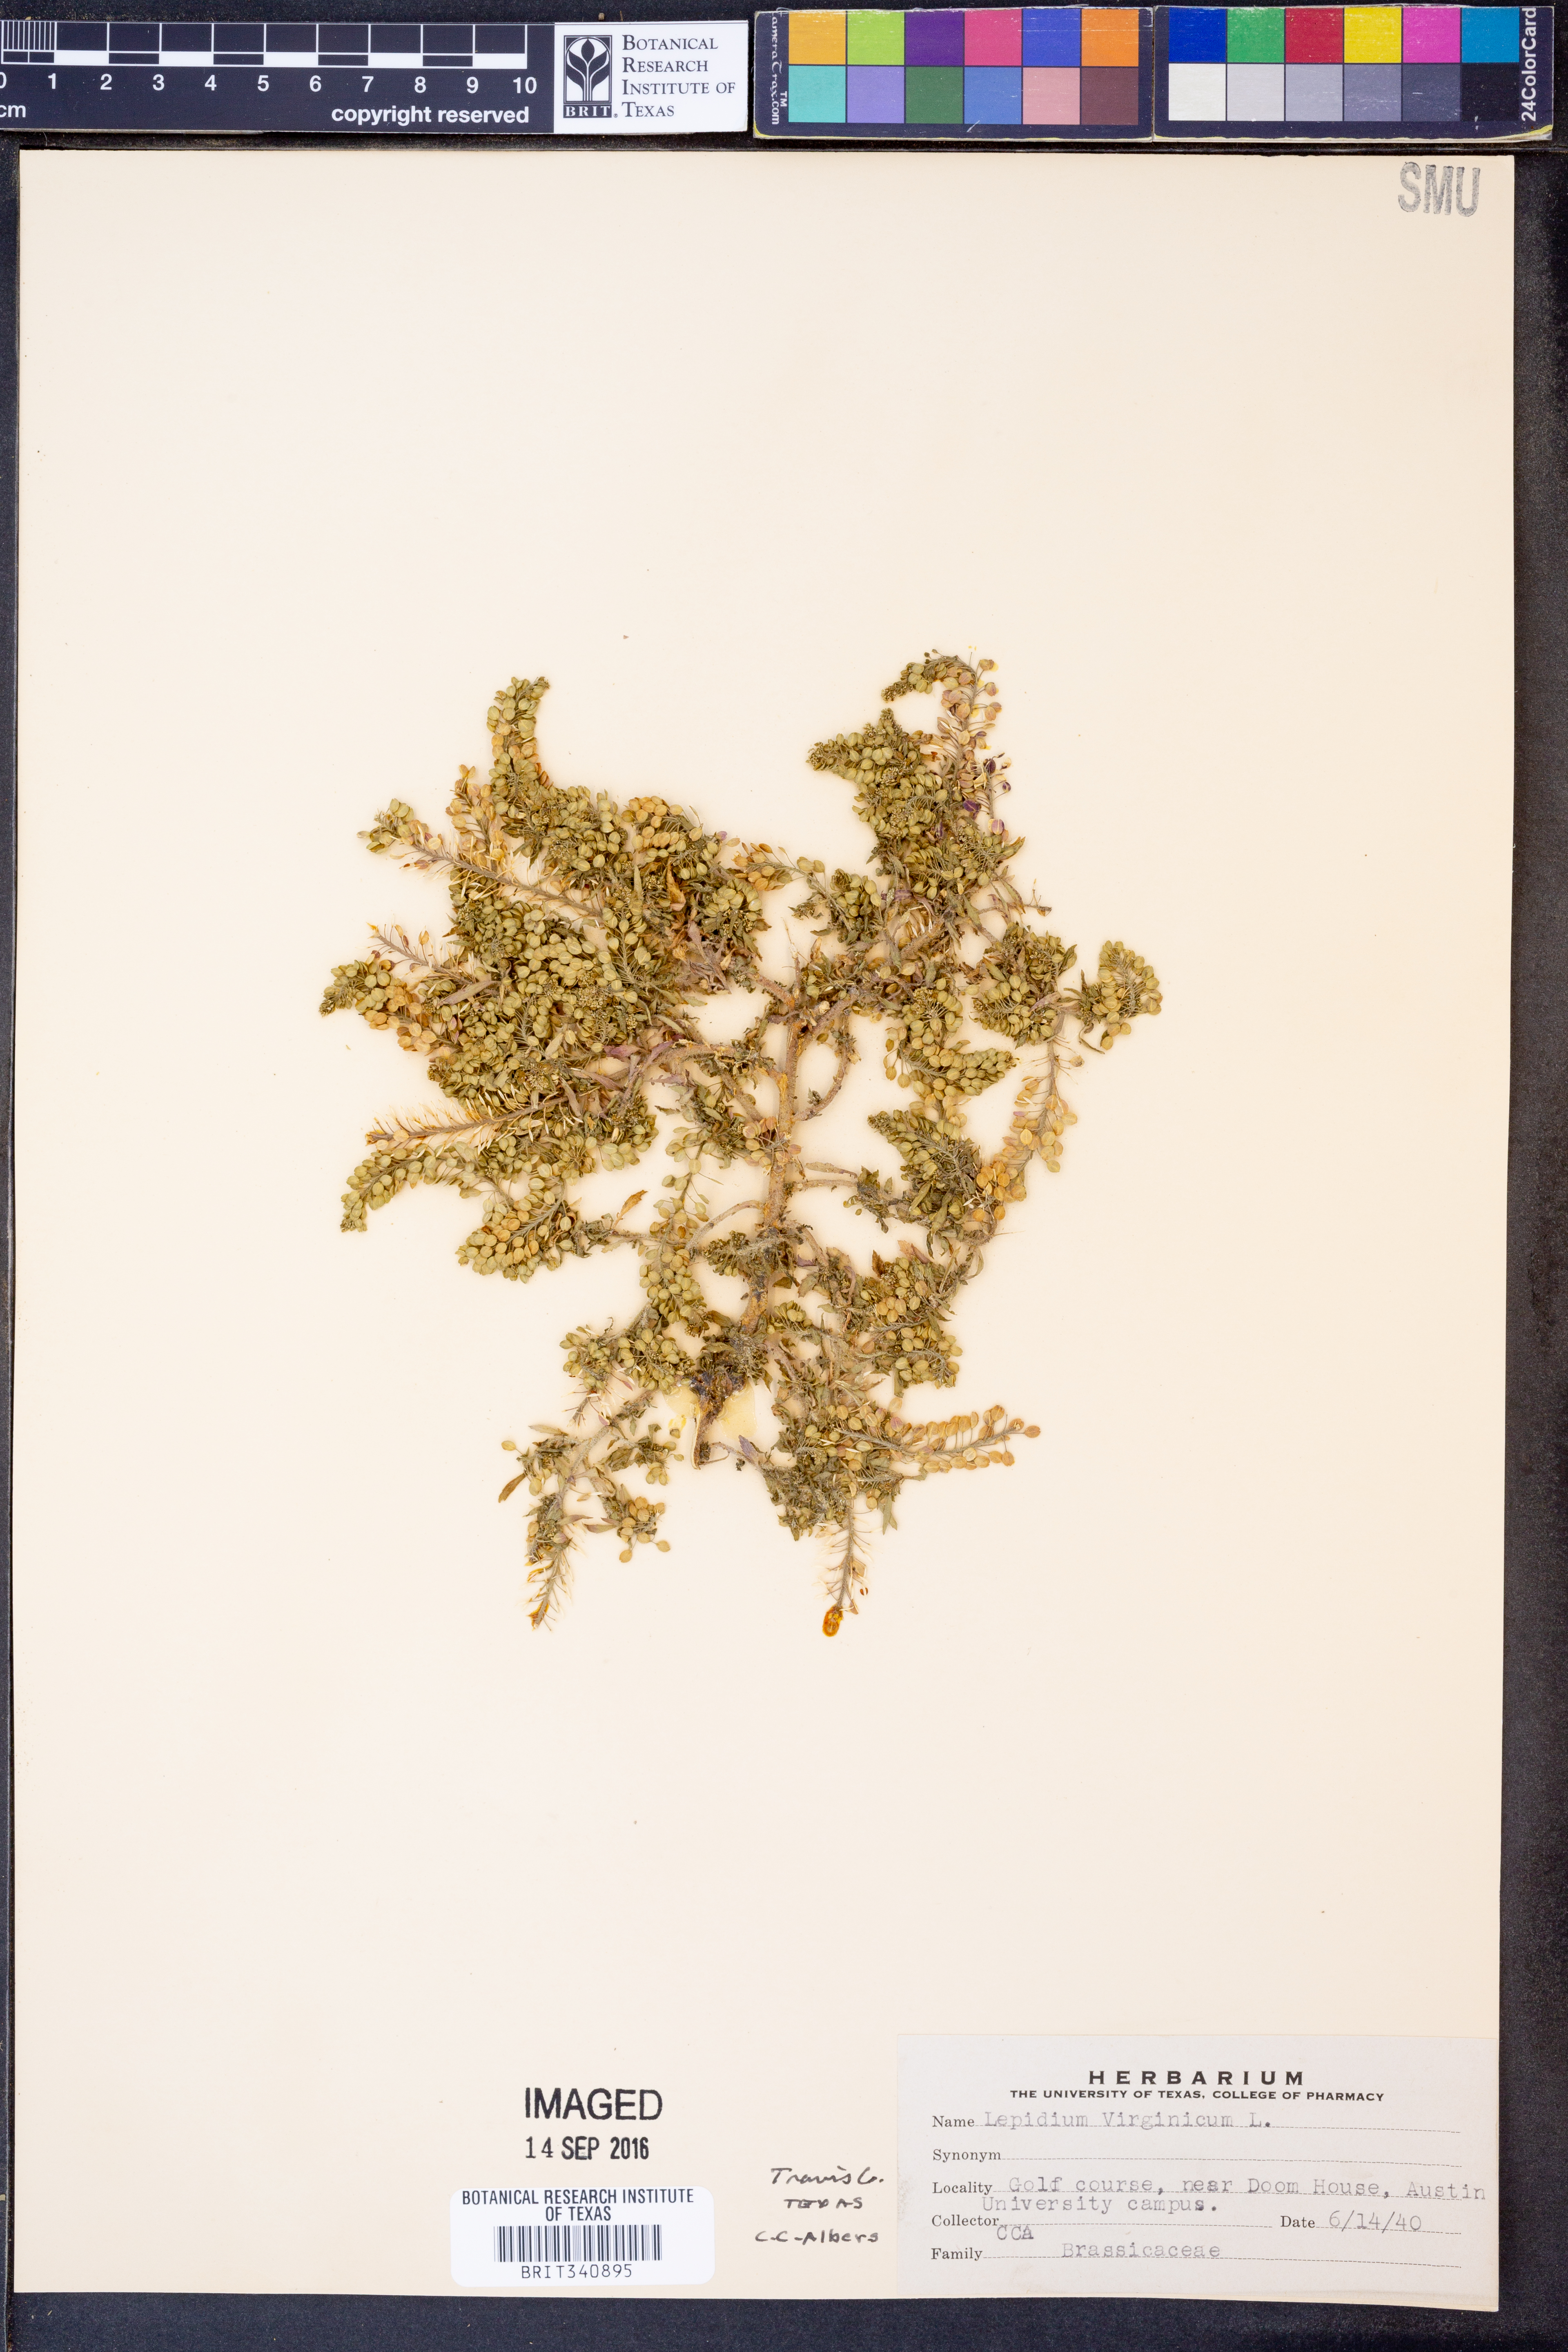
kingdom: Plantae
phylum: Tracheophyta
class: Magnoliopsida
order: Brassicales
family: Brassicaceae
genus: Lepidium
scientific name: Lepidium virginicum
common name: Least pepperwort
